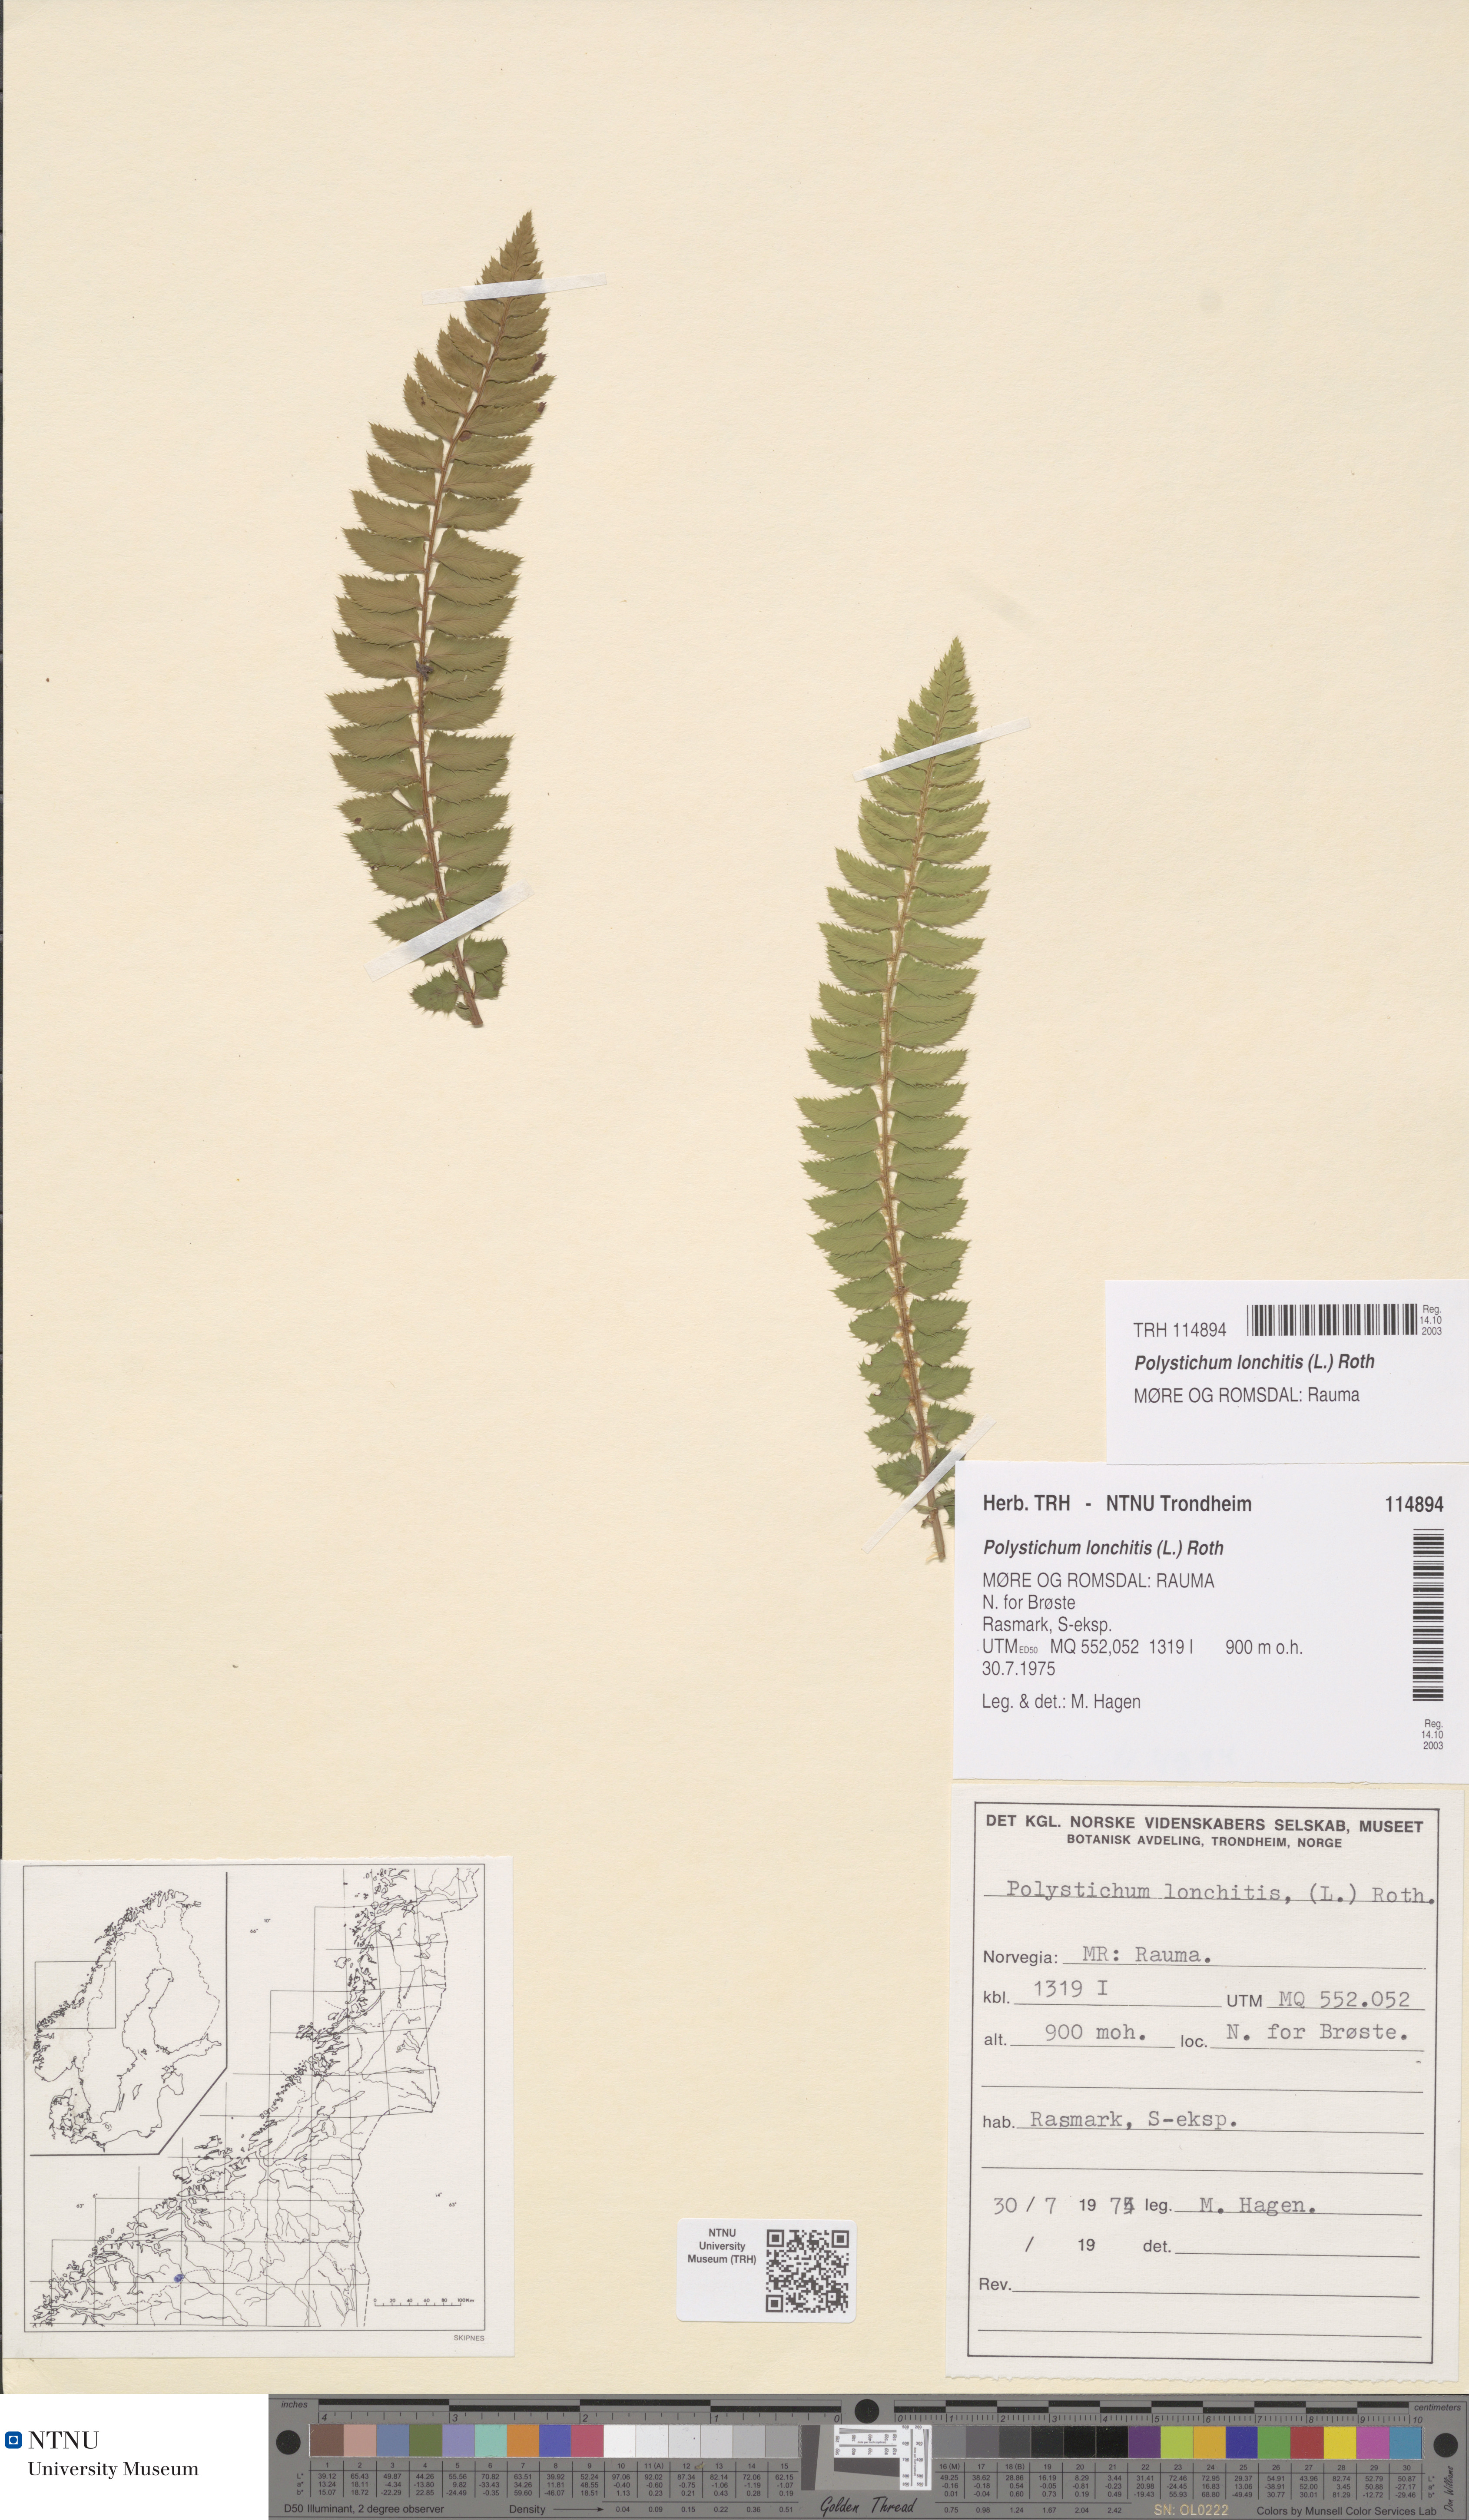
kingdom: Plantae
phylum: Tracheophyta
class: Polypodiopsida
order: Polypodiales
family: Dryopteridaceae
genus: Polystichum
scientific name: Polystichum lonchitis
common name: Holly fern
